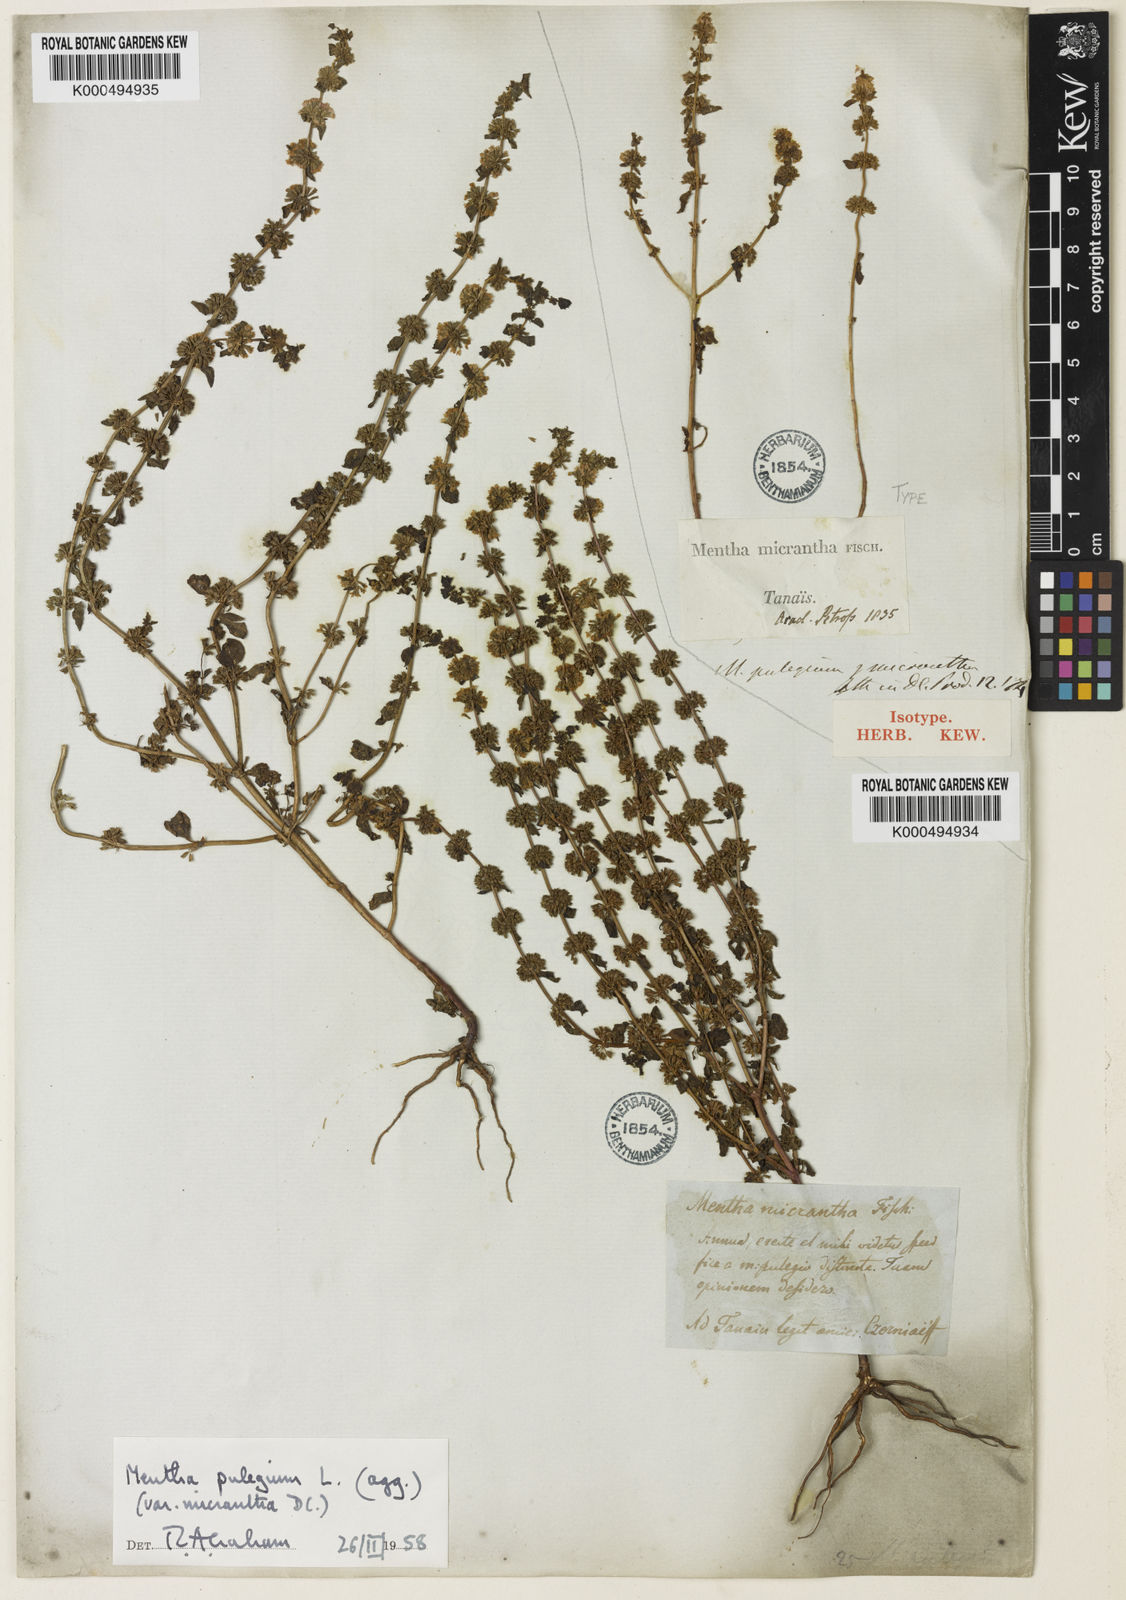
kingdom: Plantae
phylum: Tracheophyta
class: Magnoliopsida
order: Lamiales
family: Lamiaceae
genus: Mentha
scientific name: Mentha micrantha
